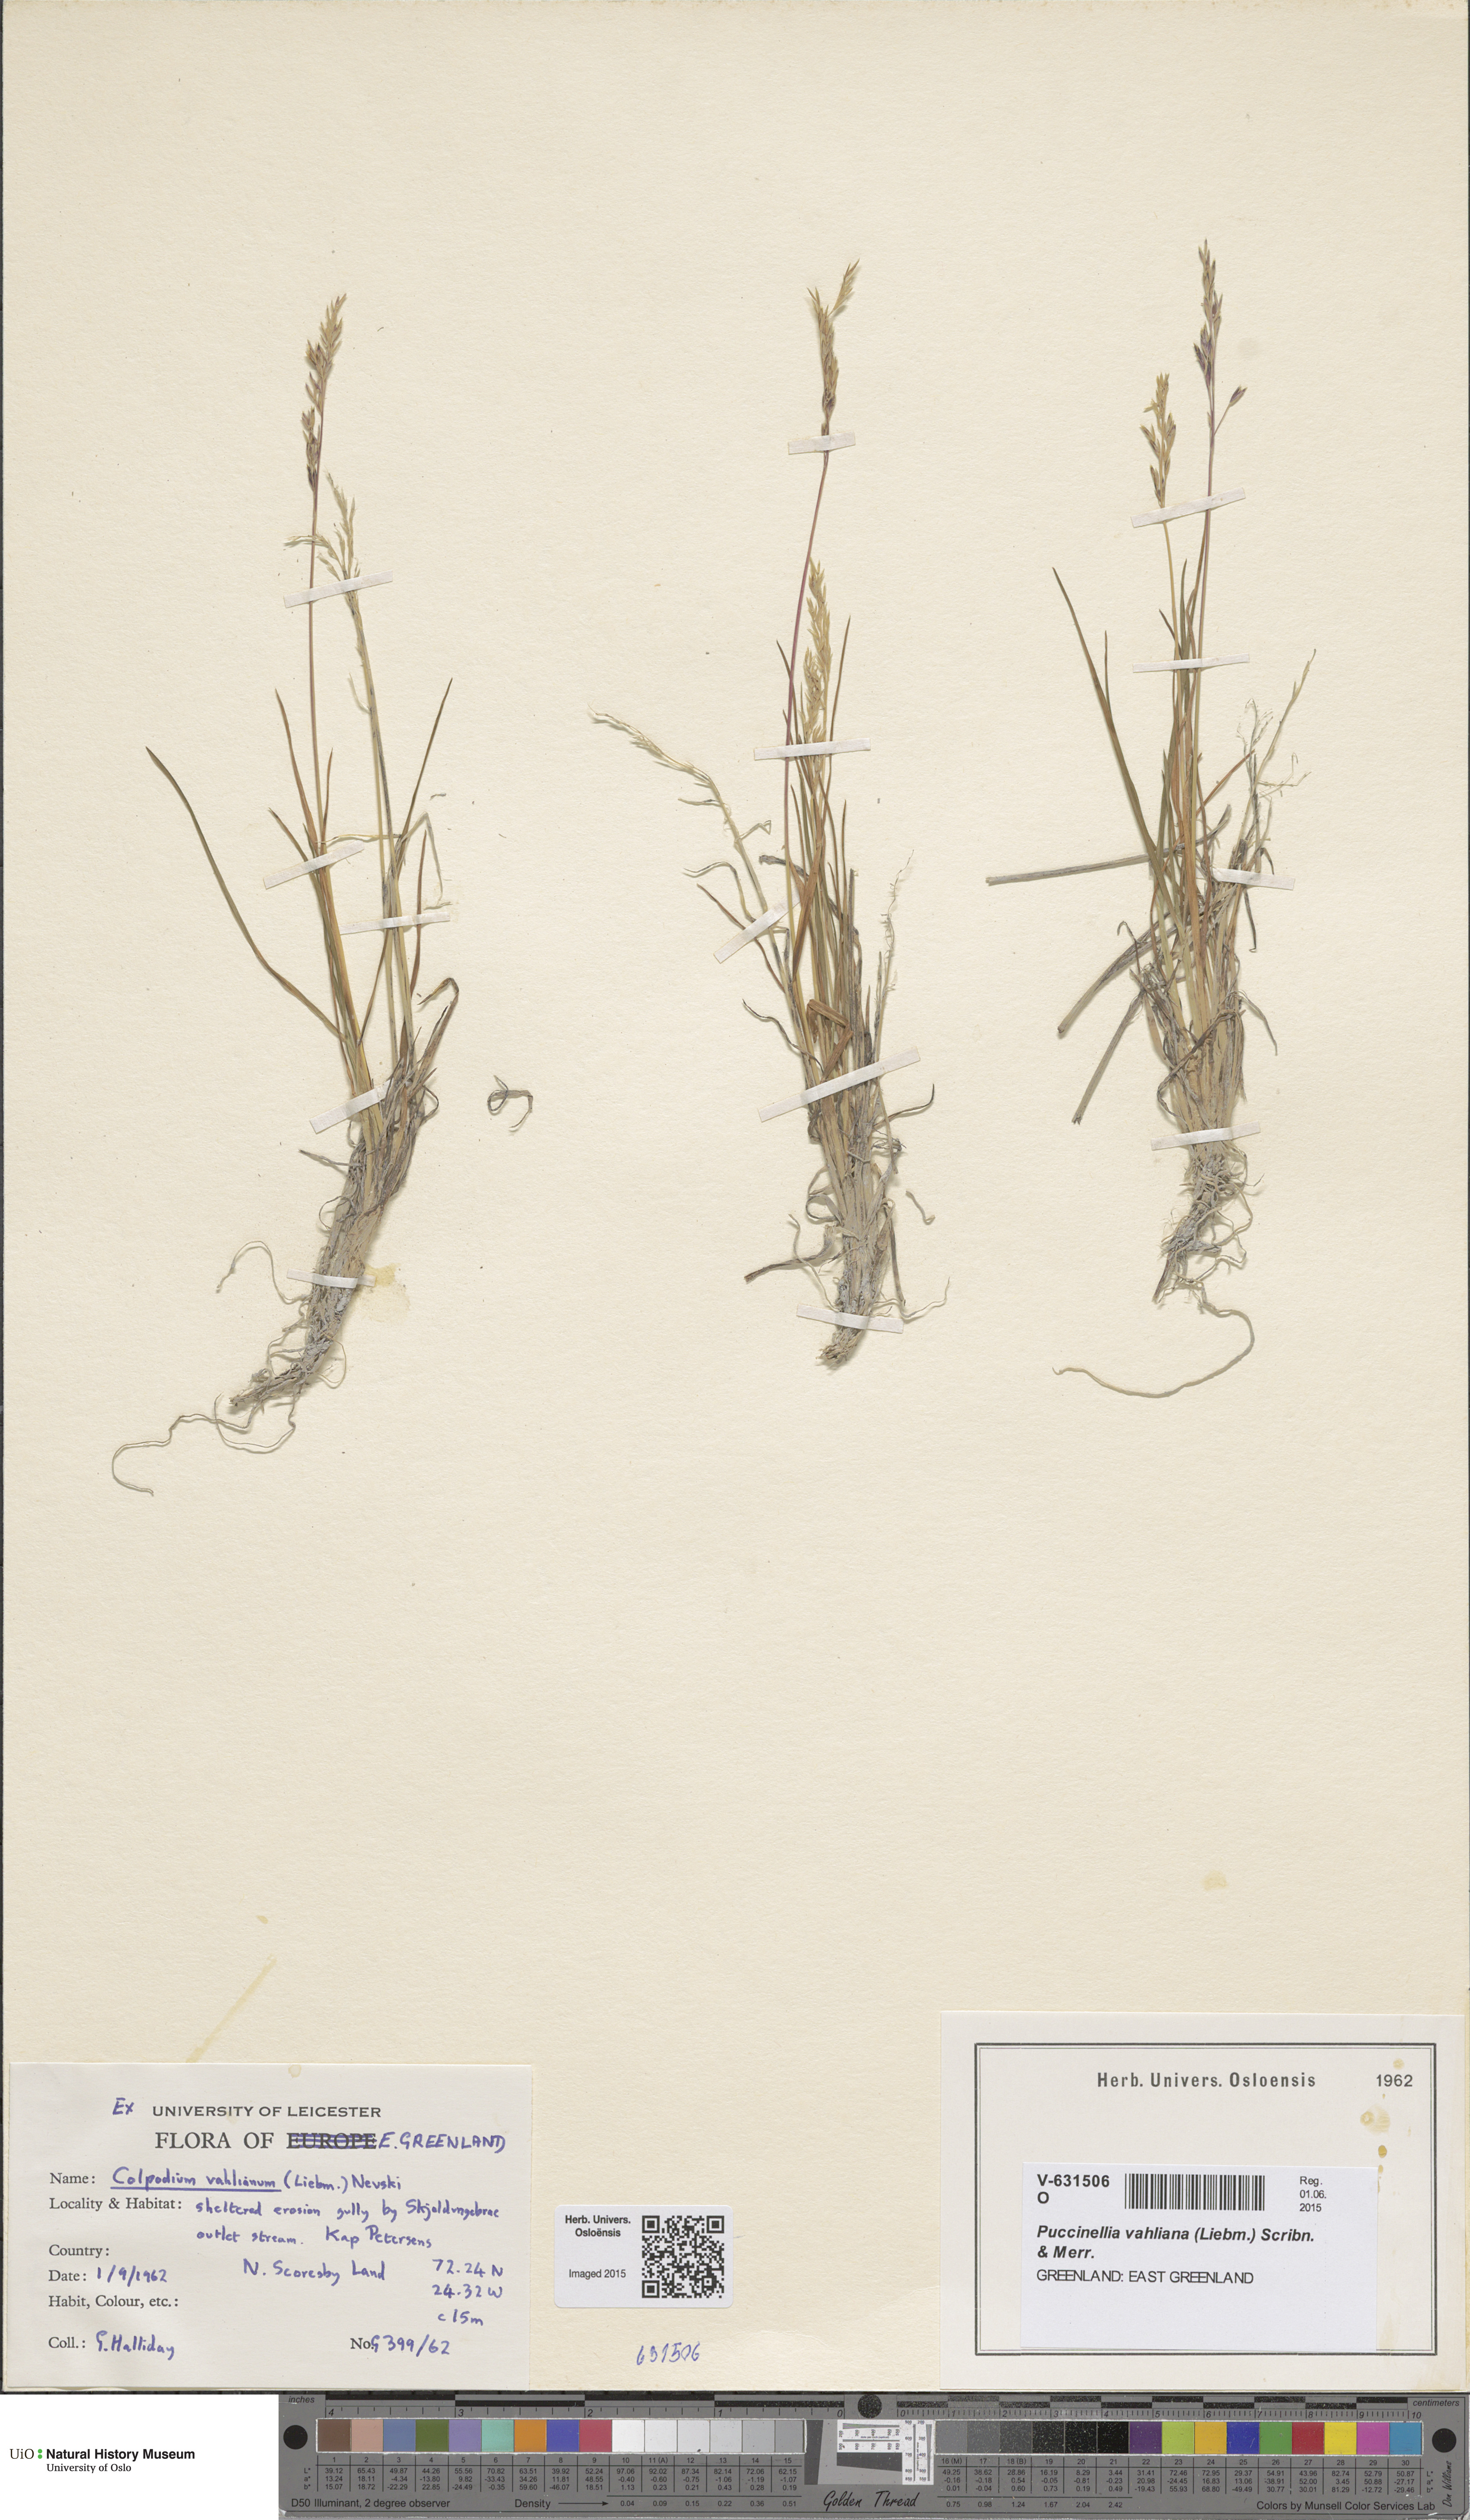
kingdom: Plantae
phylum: Tracheophyta
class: Liliopsida
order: Poales
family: Poaceae
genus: Puccinellia
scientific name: Puccinellia vahliana
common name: Vahl's alkaligrass
